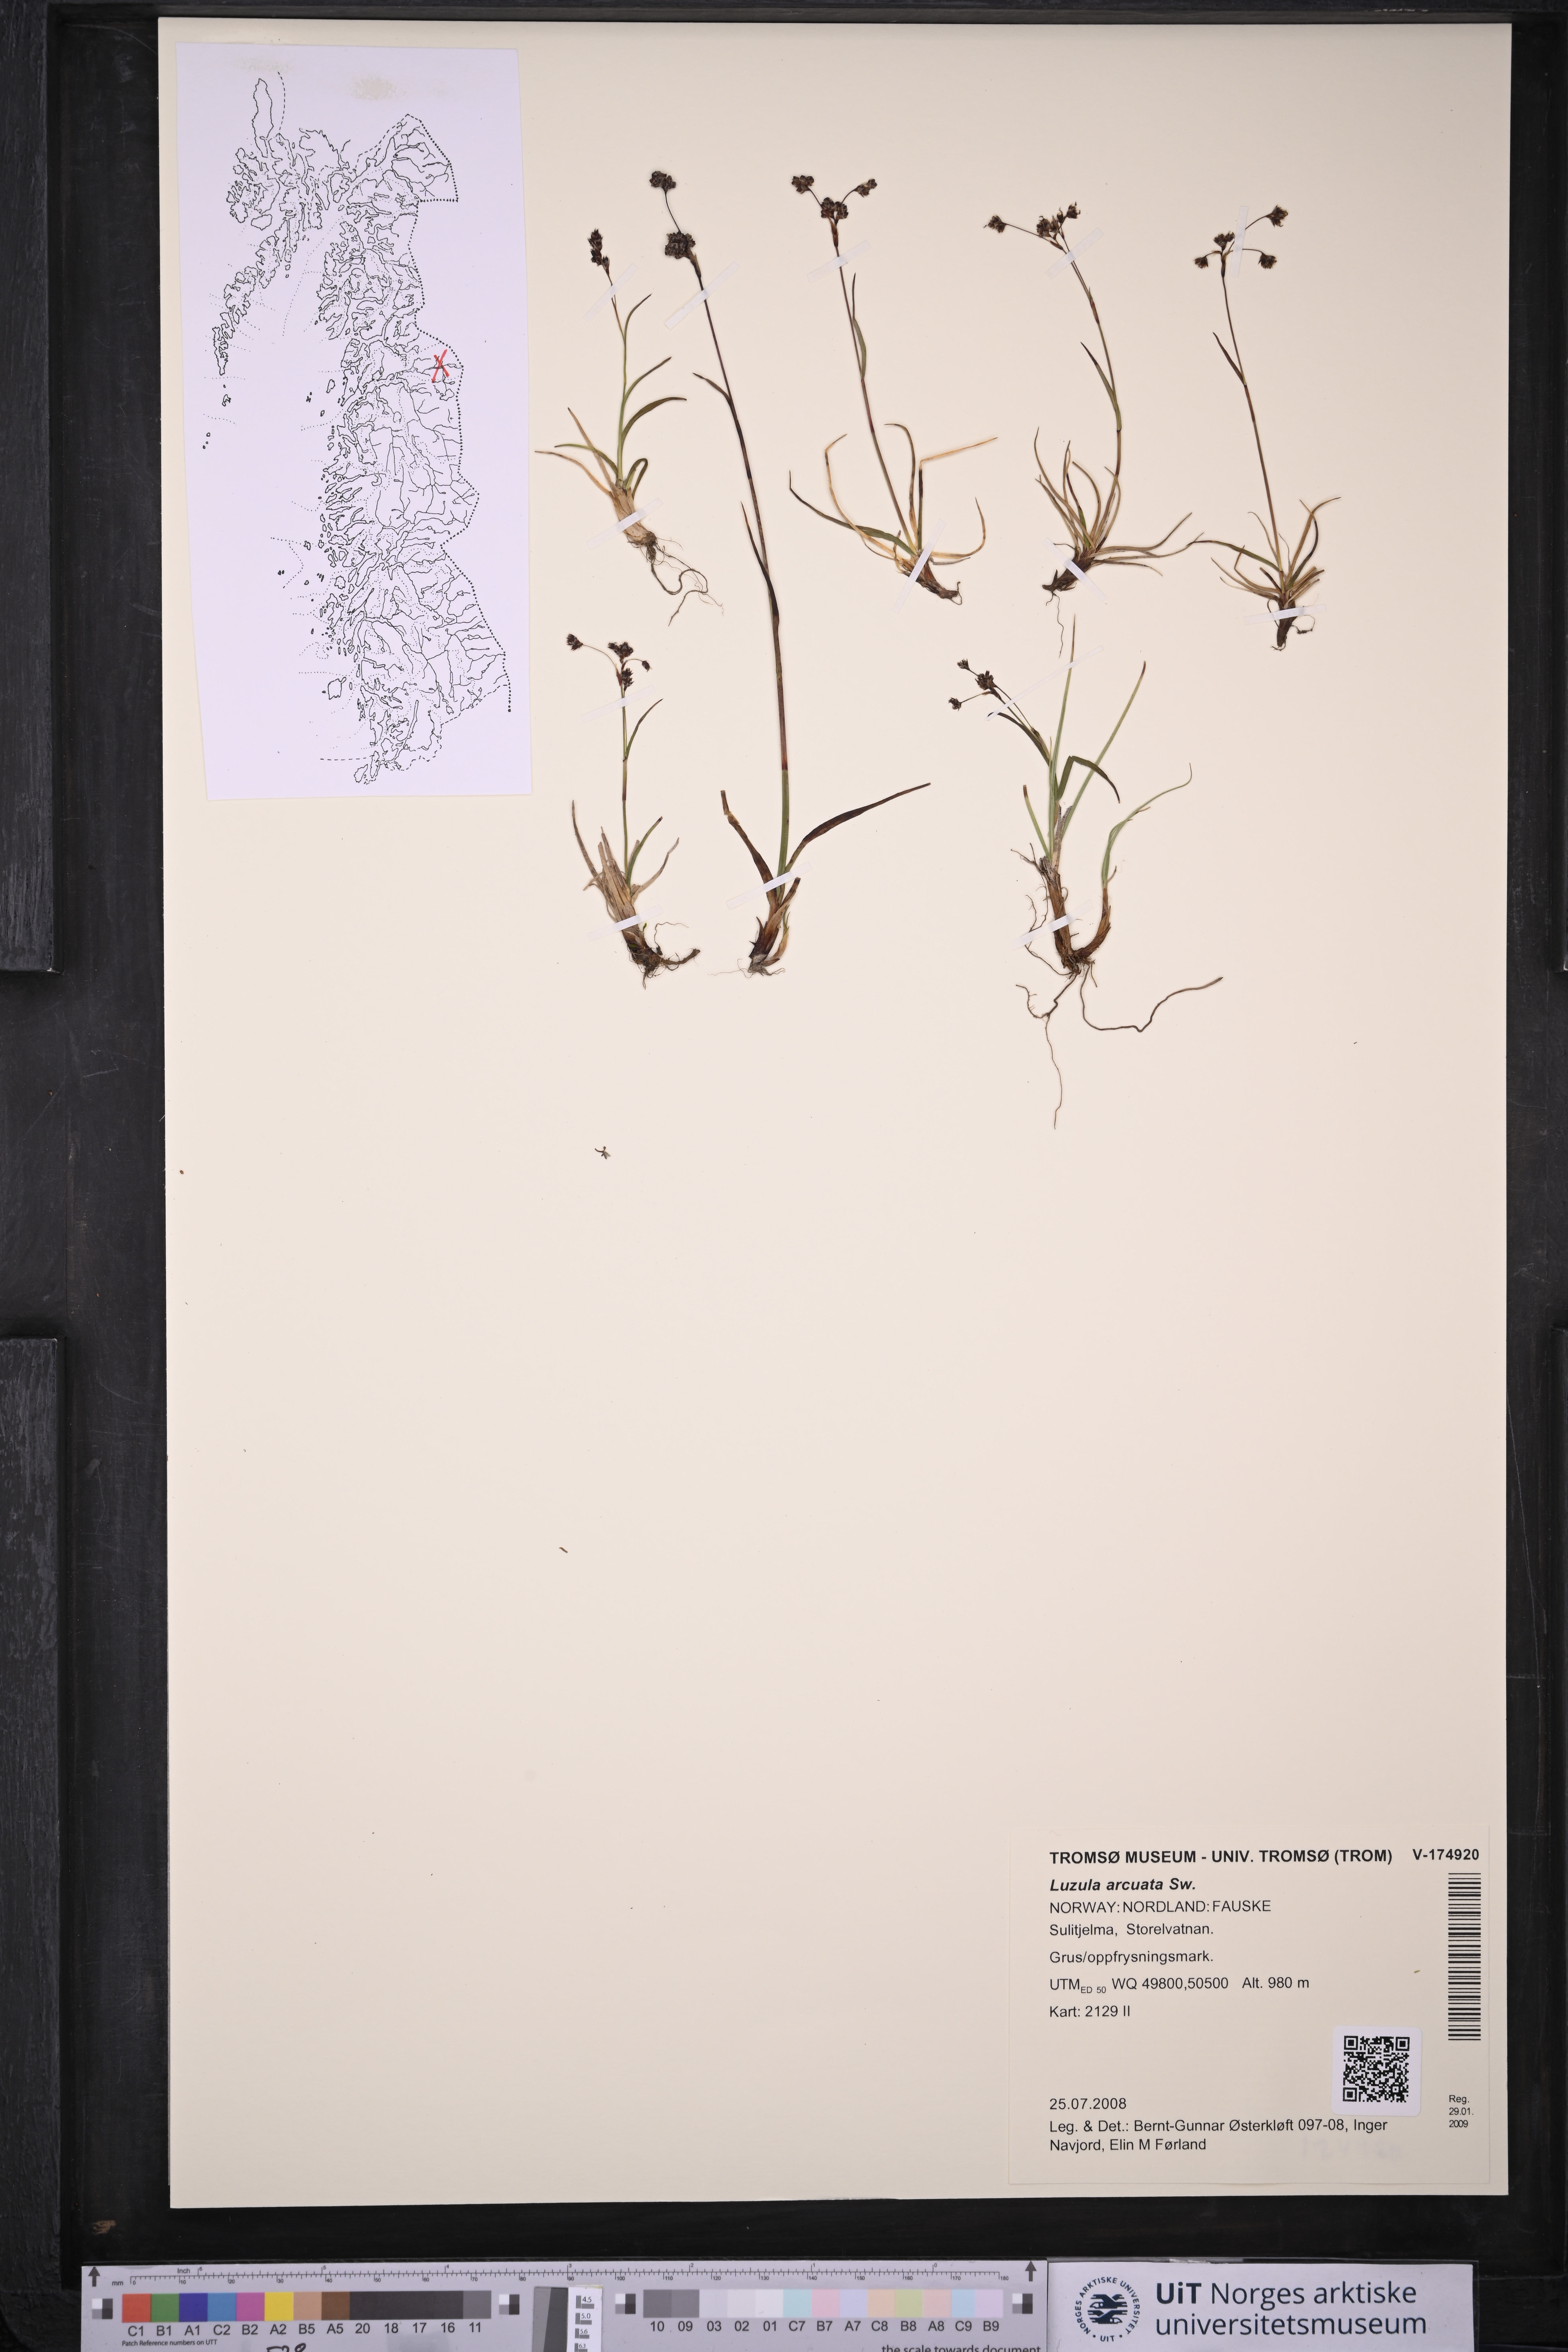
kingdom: Plantae
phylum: Tracheophyta
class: Liliopsida
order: Poales
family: Juncaceae
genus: Luzula
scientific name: Luzula arcuata
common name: Curved wood-rush
